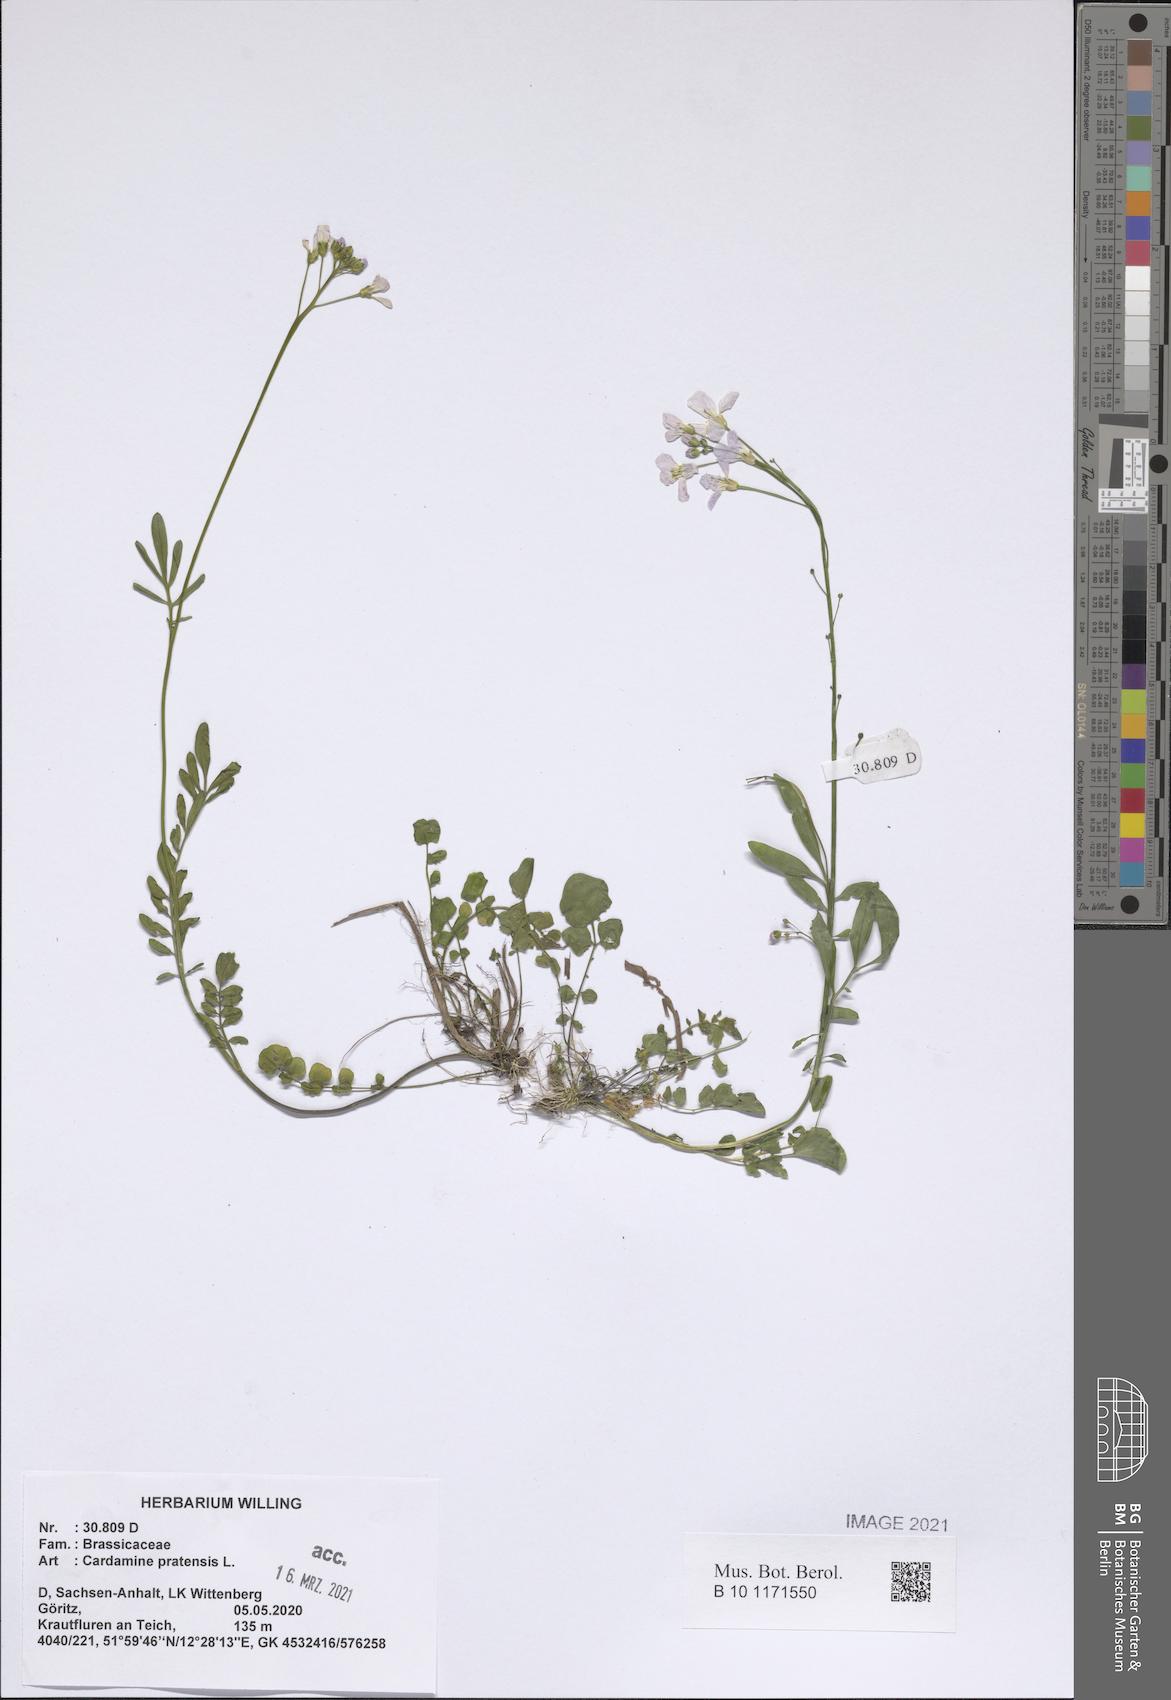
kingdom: Plantae
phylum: Tracheophyta
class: Magnoliopsida
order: Brassicales
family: Brassicaceae
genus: Cardamine
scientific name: Cardamine pratensis
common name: Cuckoo flower
